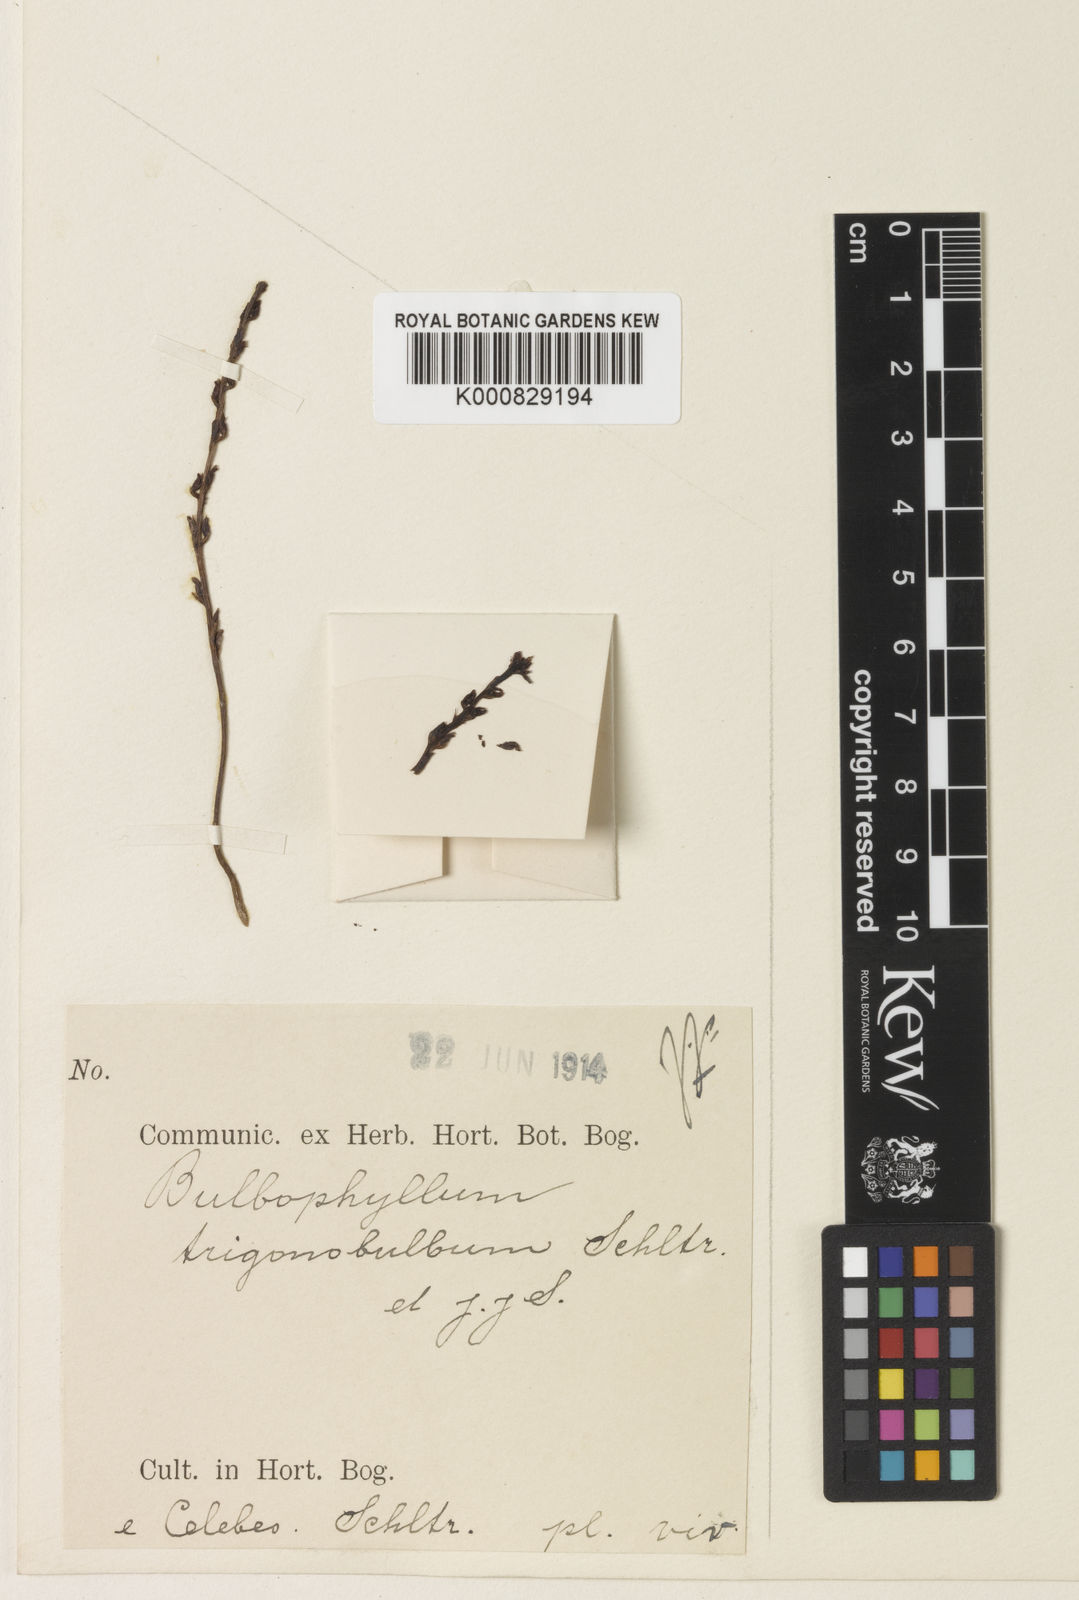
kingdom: Plantae
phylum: Tracheophyta
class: Liliopsida
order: Asparagales
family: Orchidaceae
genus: Bulbophyllum
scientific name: Bulbophyllum trigonobulbum
